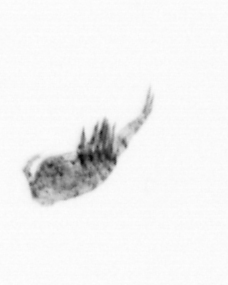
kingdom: Animalia
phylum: Arthropoda
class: Copepoda
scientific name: Copepoda
